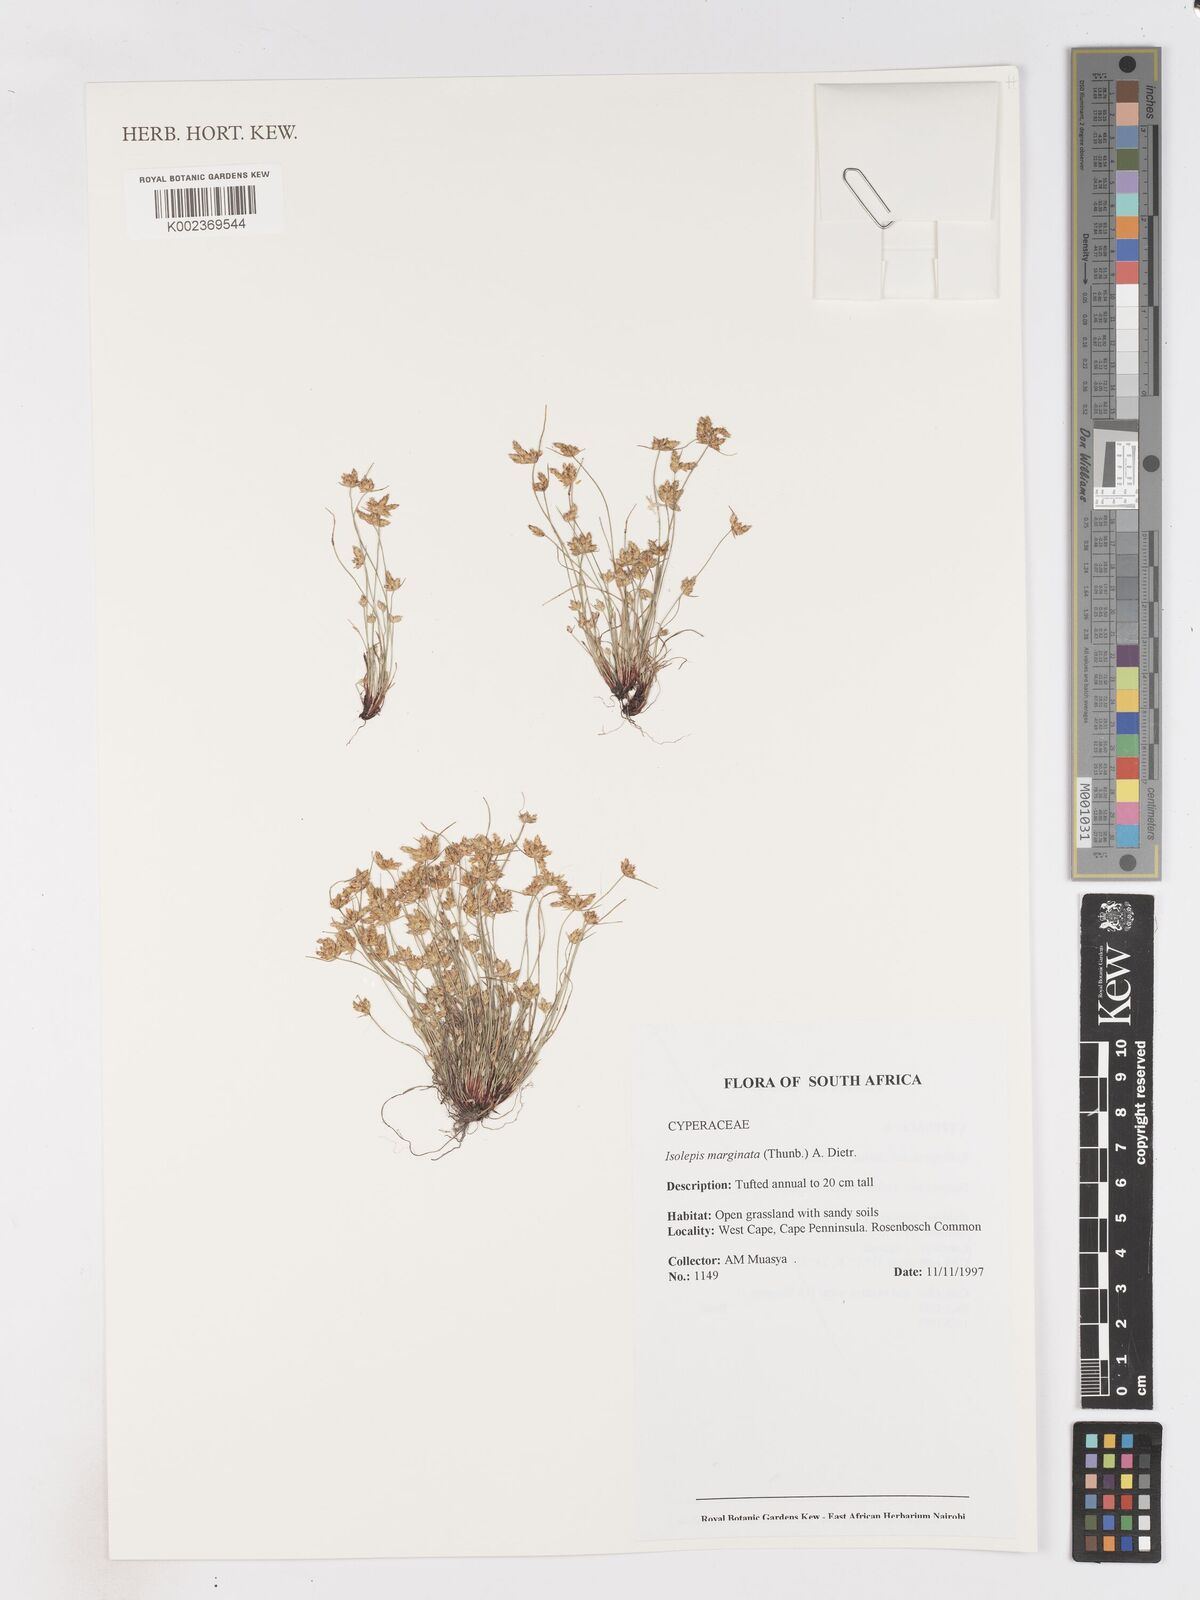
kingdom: Plantae
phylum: Tracheophyta
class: Liliopsida
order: Poales
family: Cyperaceae
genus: Isolepis
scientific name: Isolepis marginata
